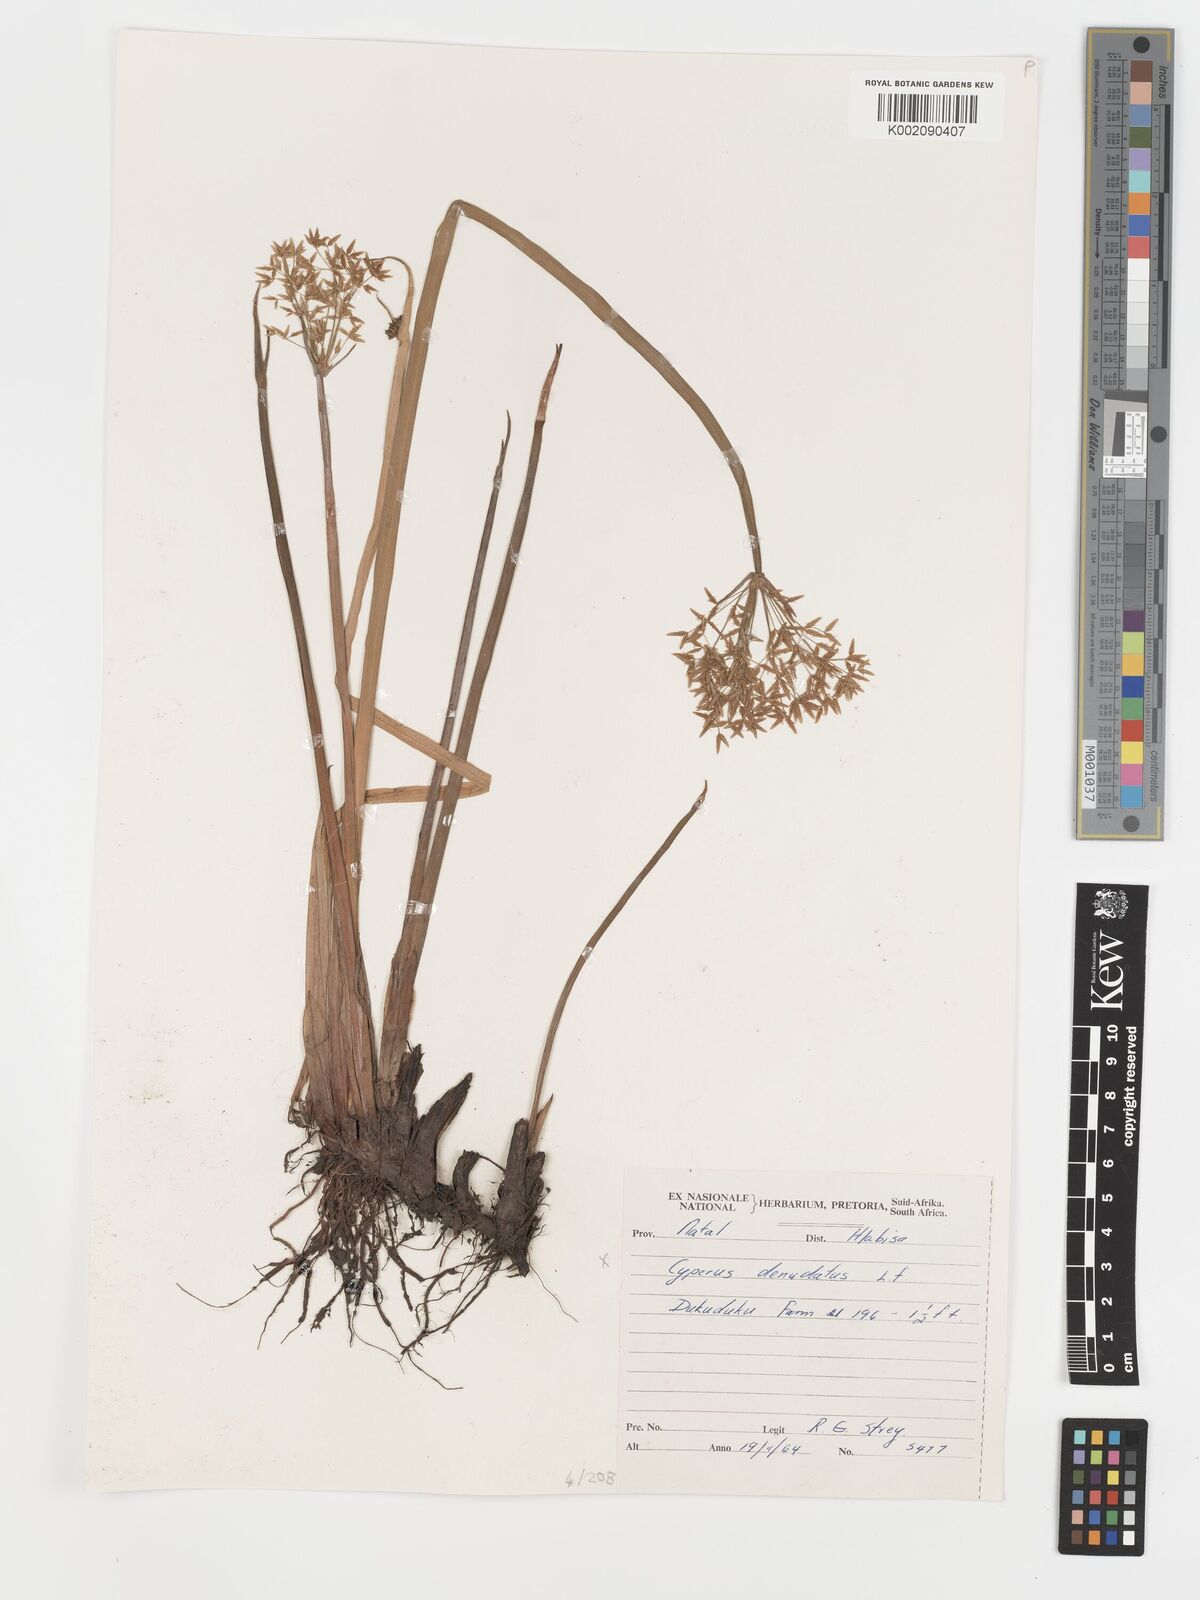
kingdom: Plantae
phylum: Tracheophyta
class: Liliopsida
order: Poales
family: Cyperaceae
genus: Cyperus
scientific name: Cyperus platycaulis
